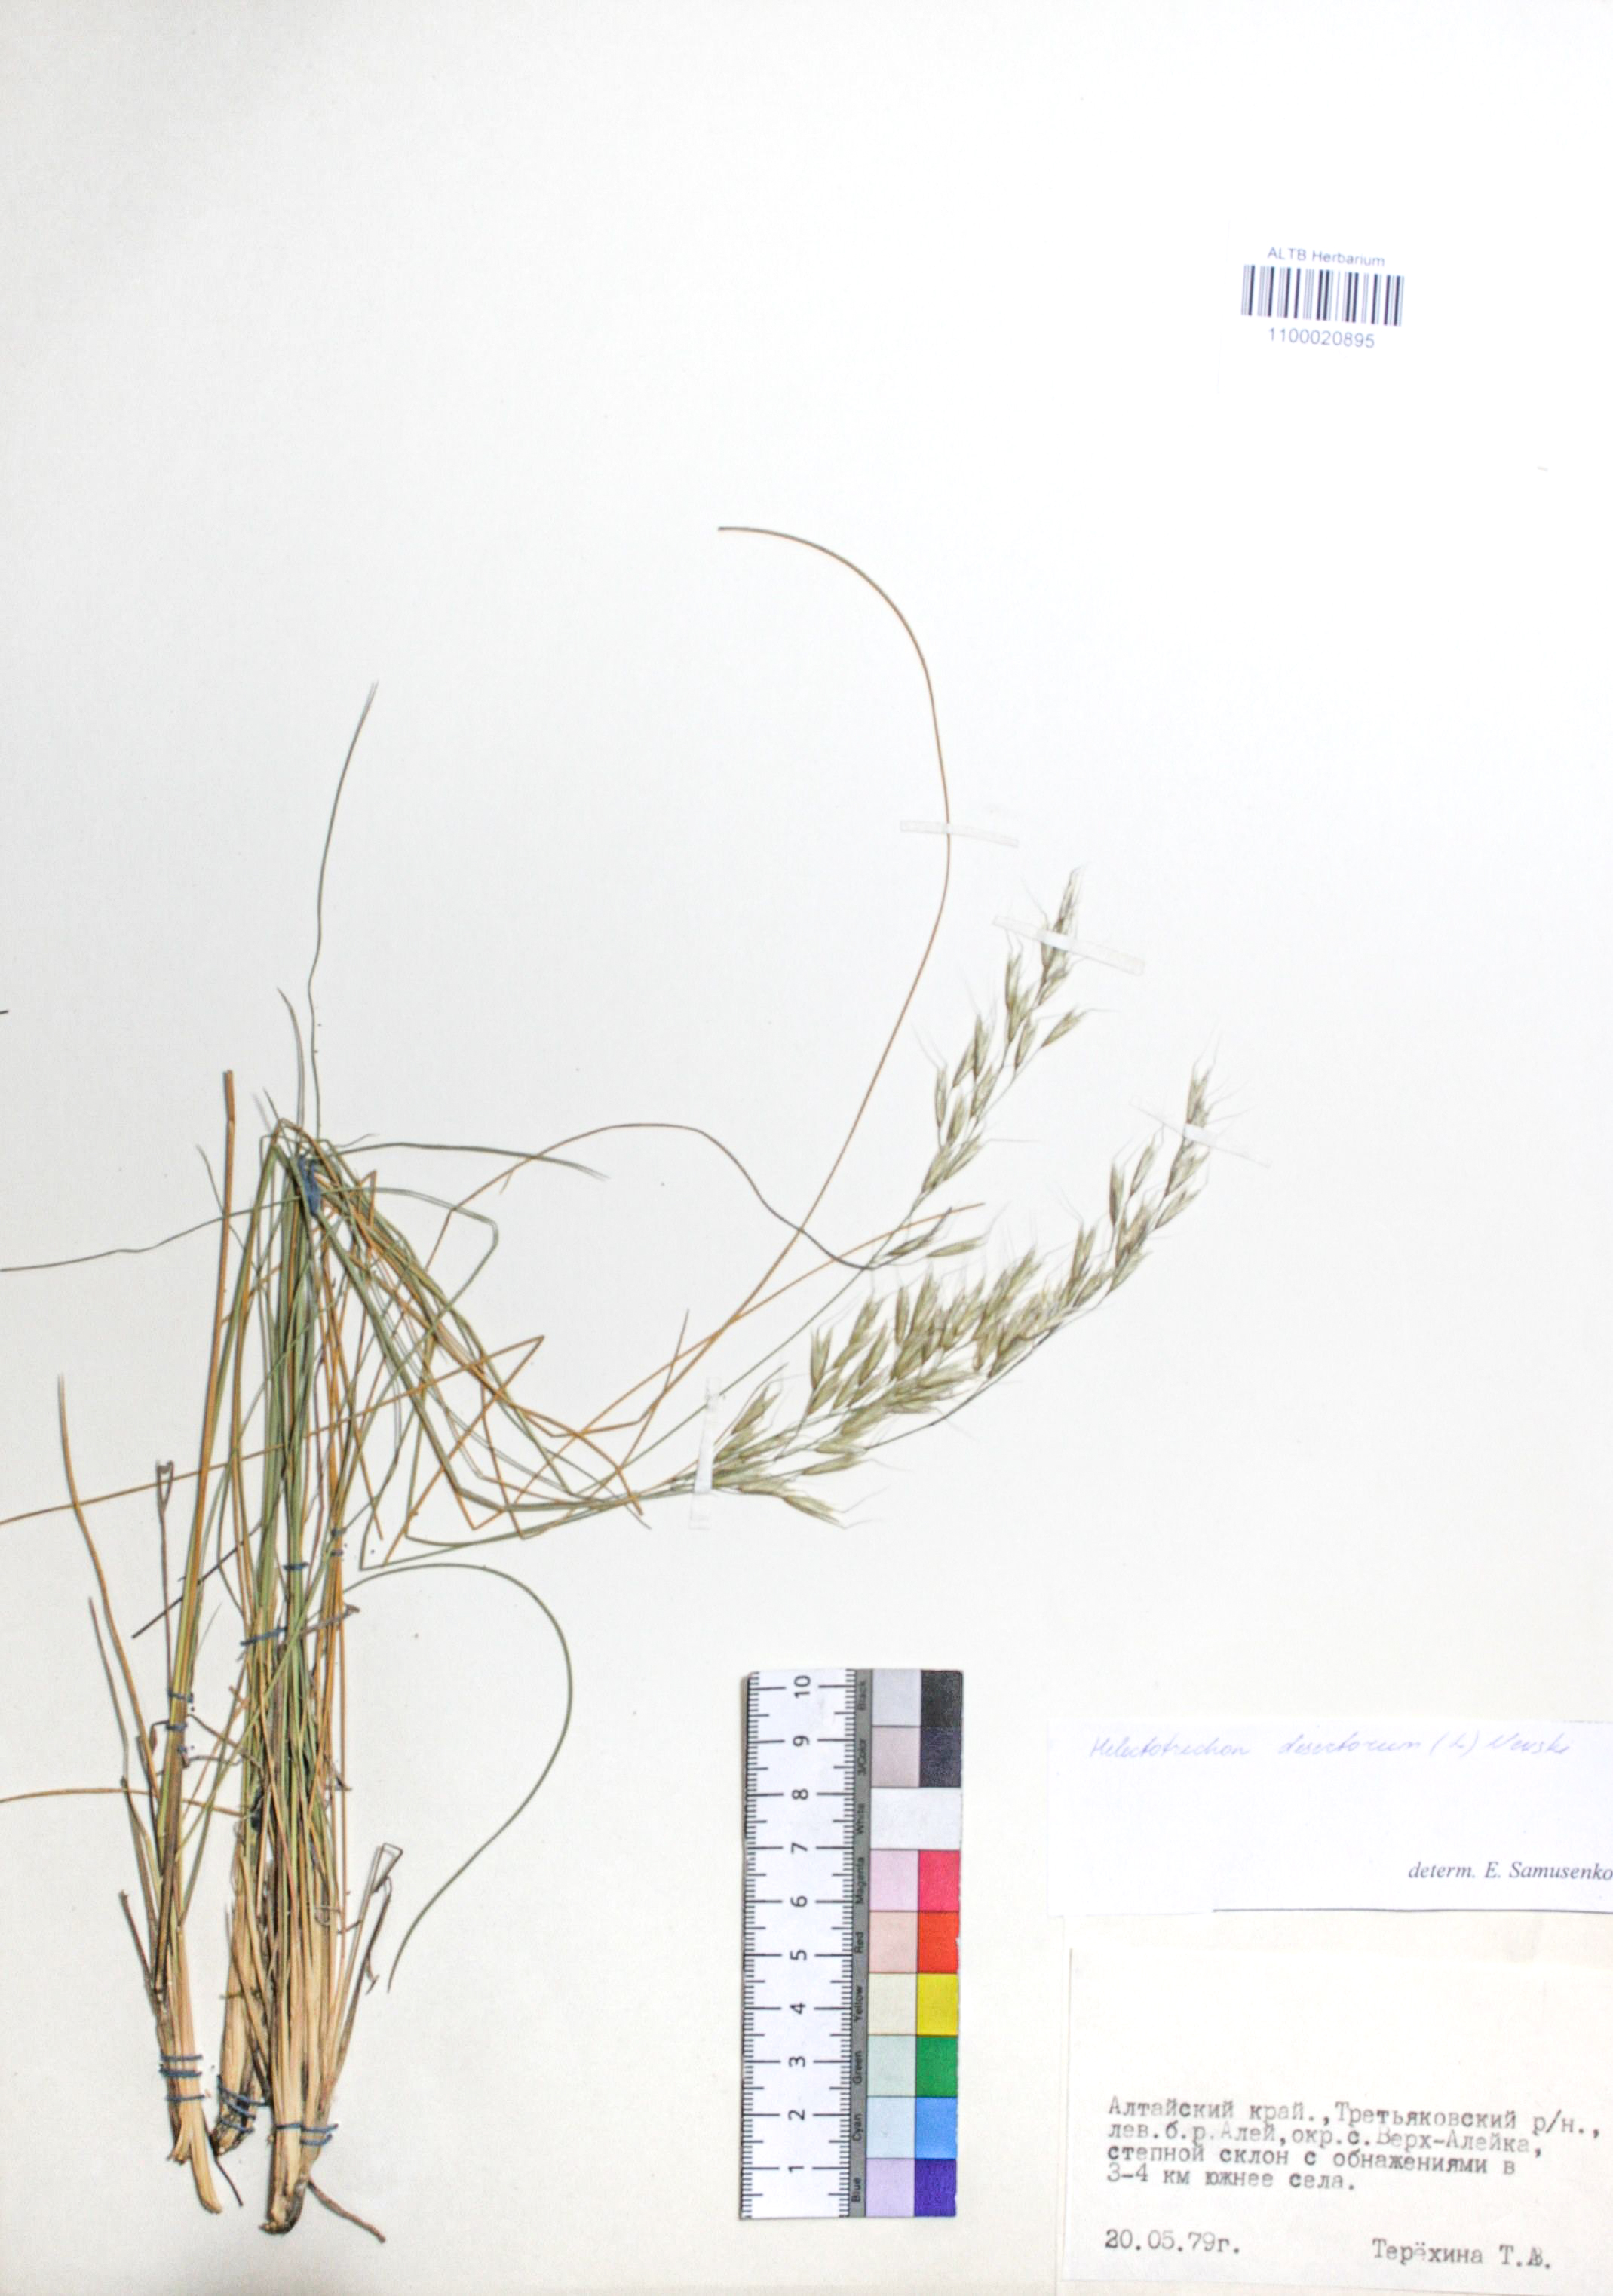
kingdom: Plantae
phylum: Tracheophyta
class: Liliopsida
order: Poales
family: Poaceae
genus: Helictotrichon
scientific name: Helictotrichon desertorum
